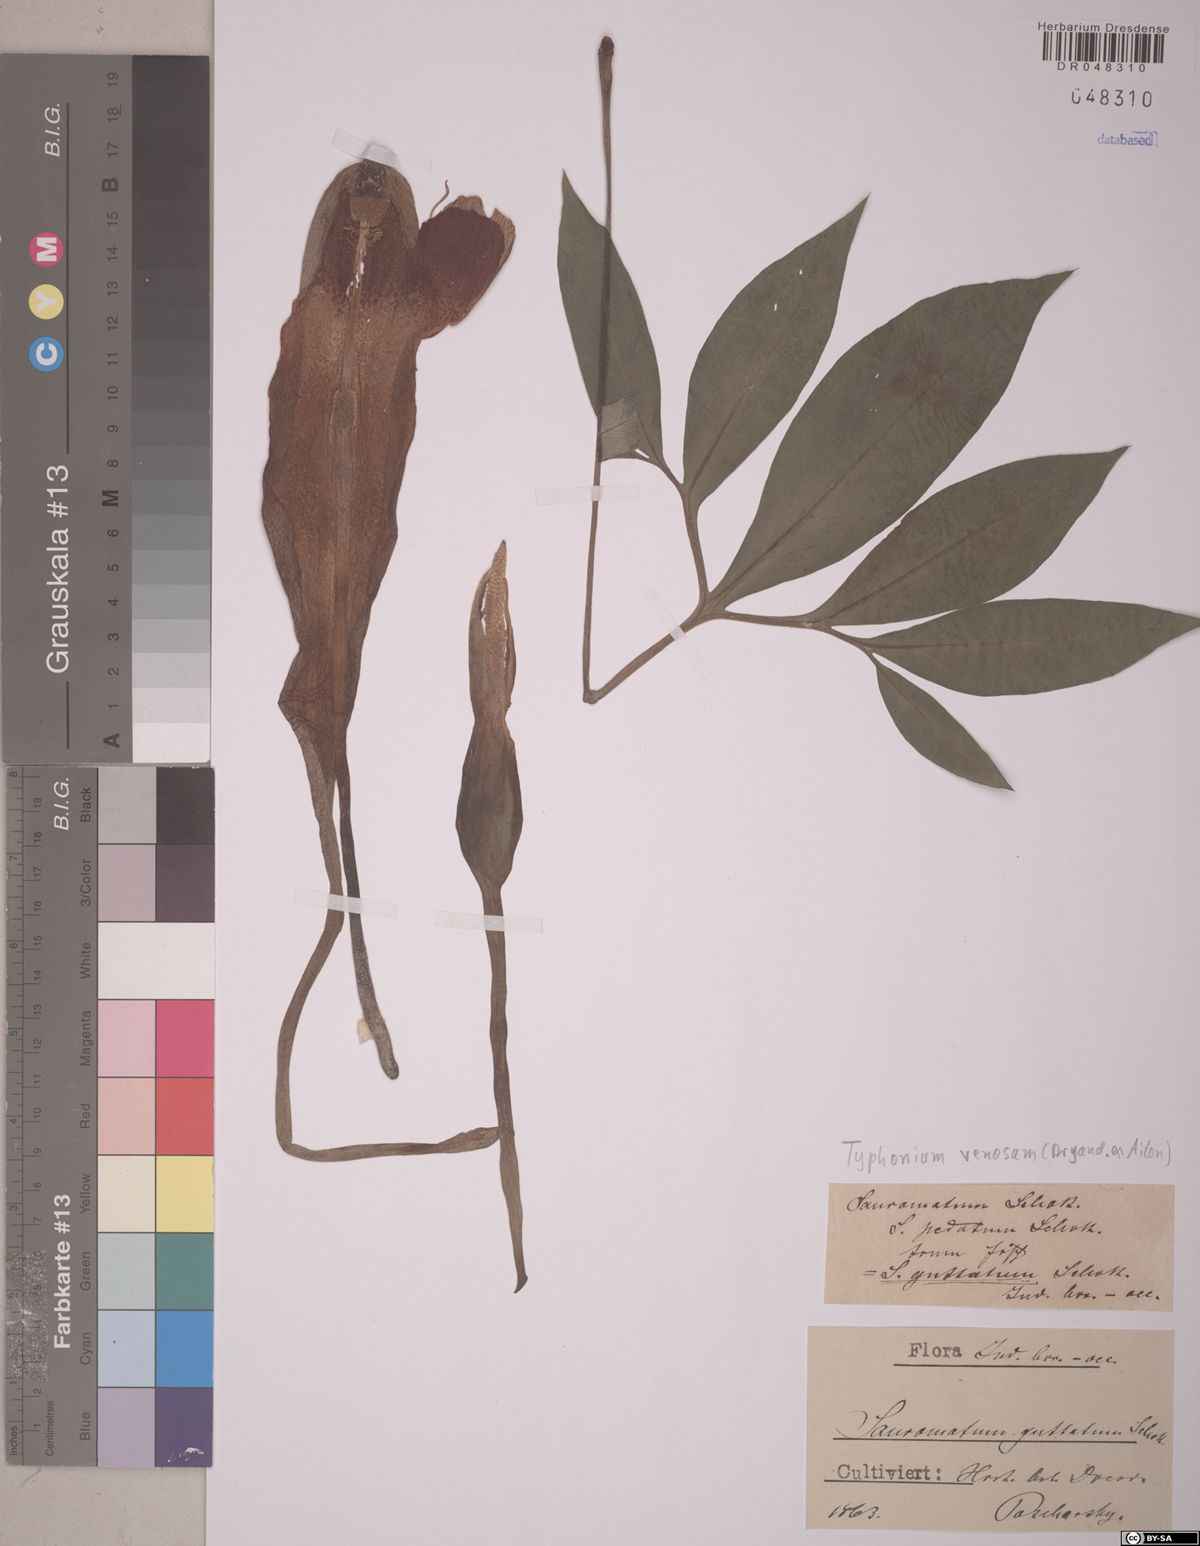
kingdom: Plantae
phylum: Tracheophyta
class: Liliopsida
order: Alismatales
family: Araceae
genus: Sauromatum
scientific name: Sauromatum venosum
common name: Voodoo lily
